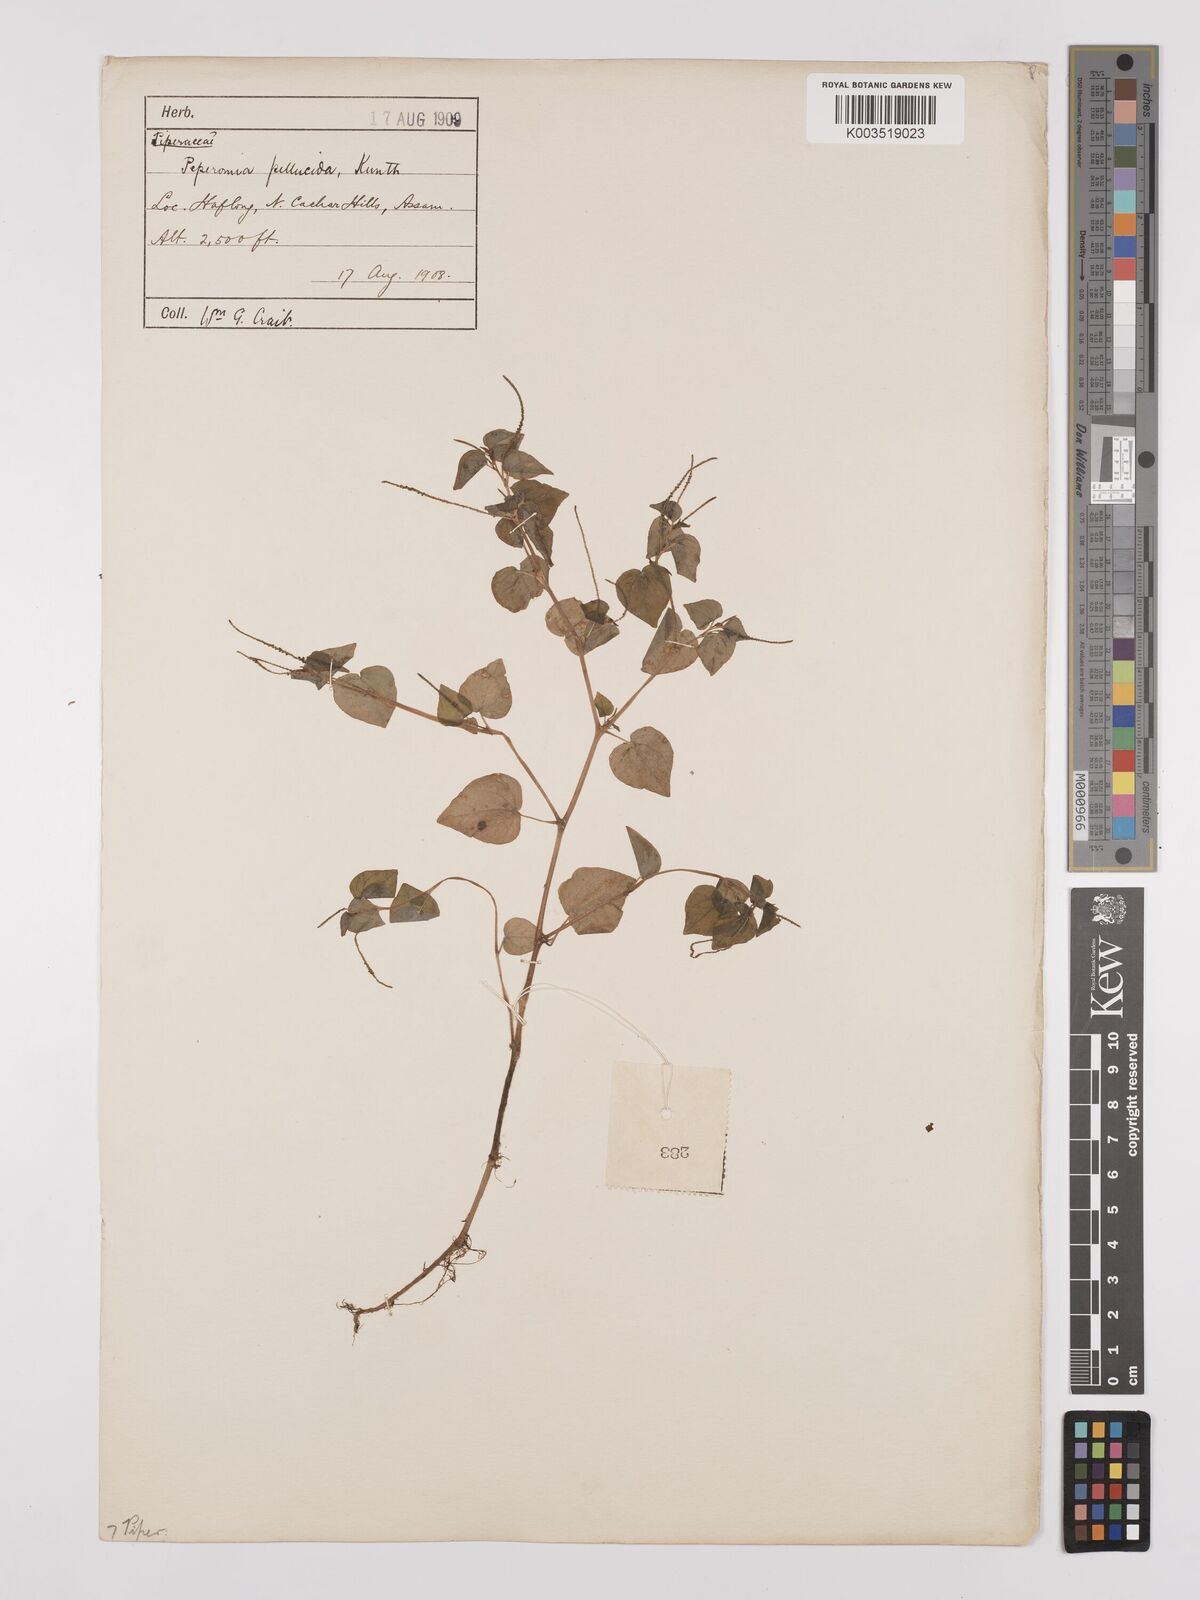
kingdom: Plantae
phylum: Tracheophyta
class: Magnoliopsida
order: Piperales
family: Piperaceae
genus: Peperomia
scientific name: Peperomia pellucida
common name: Man to man
